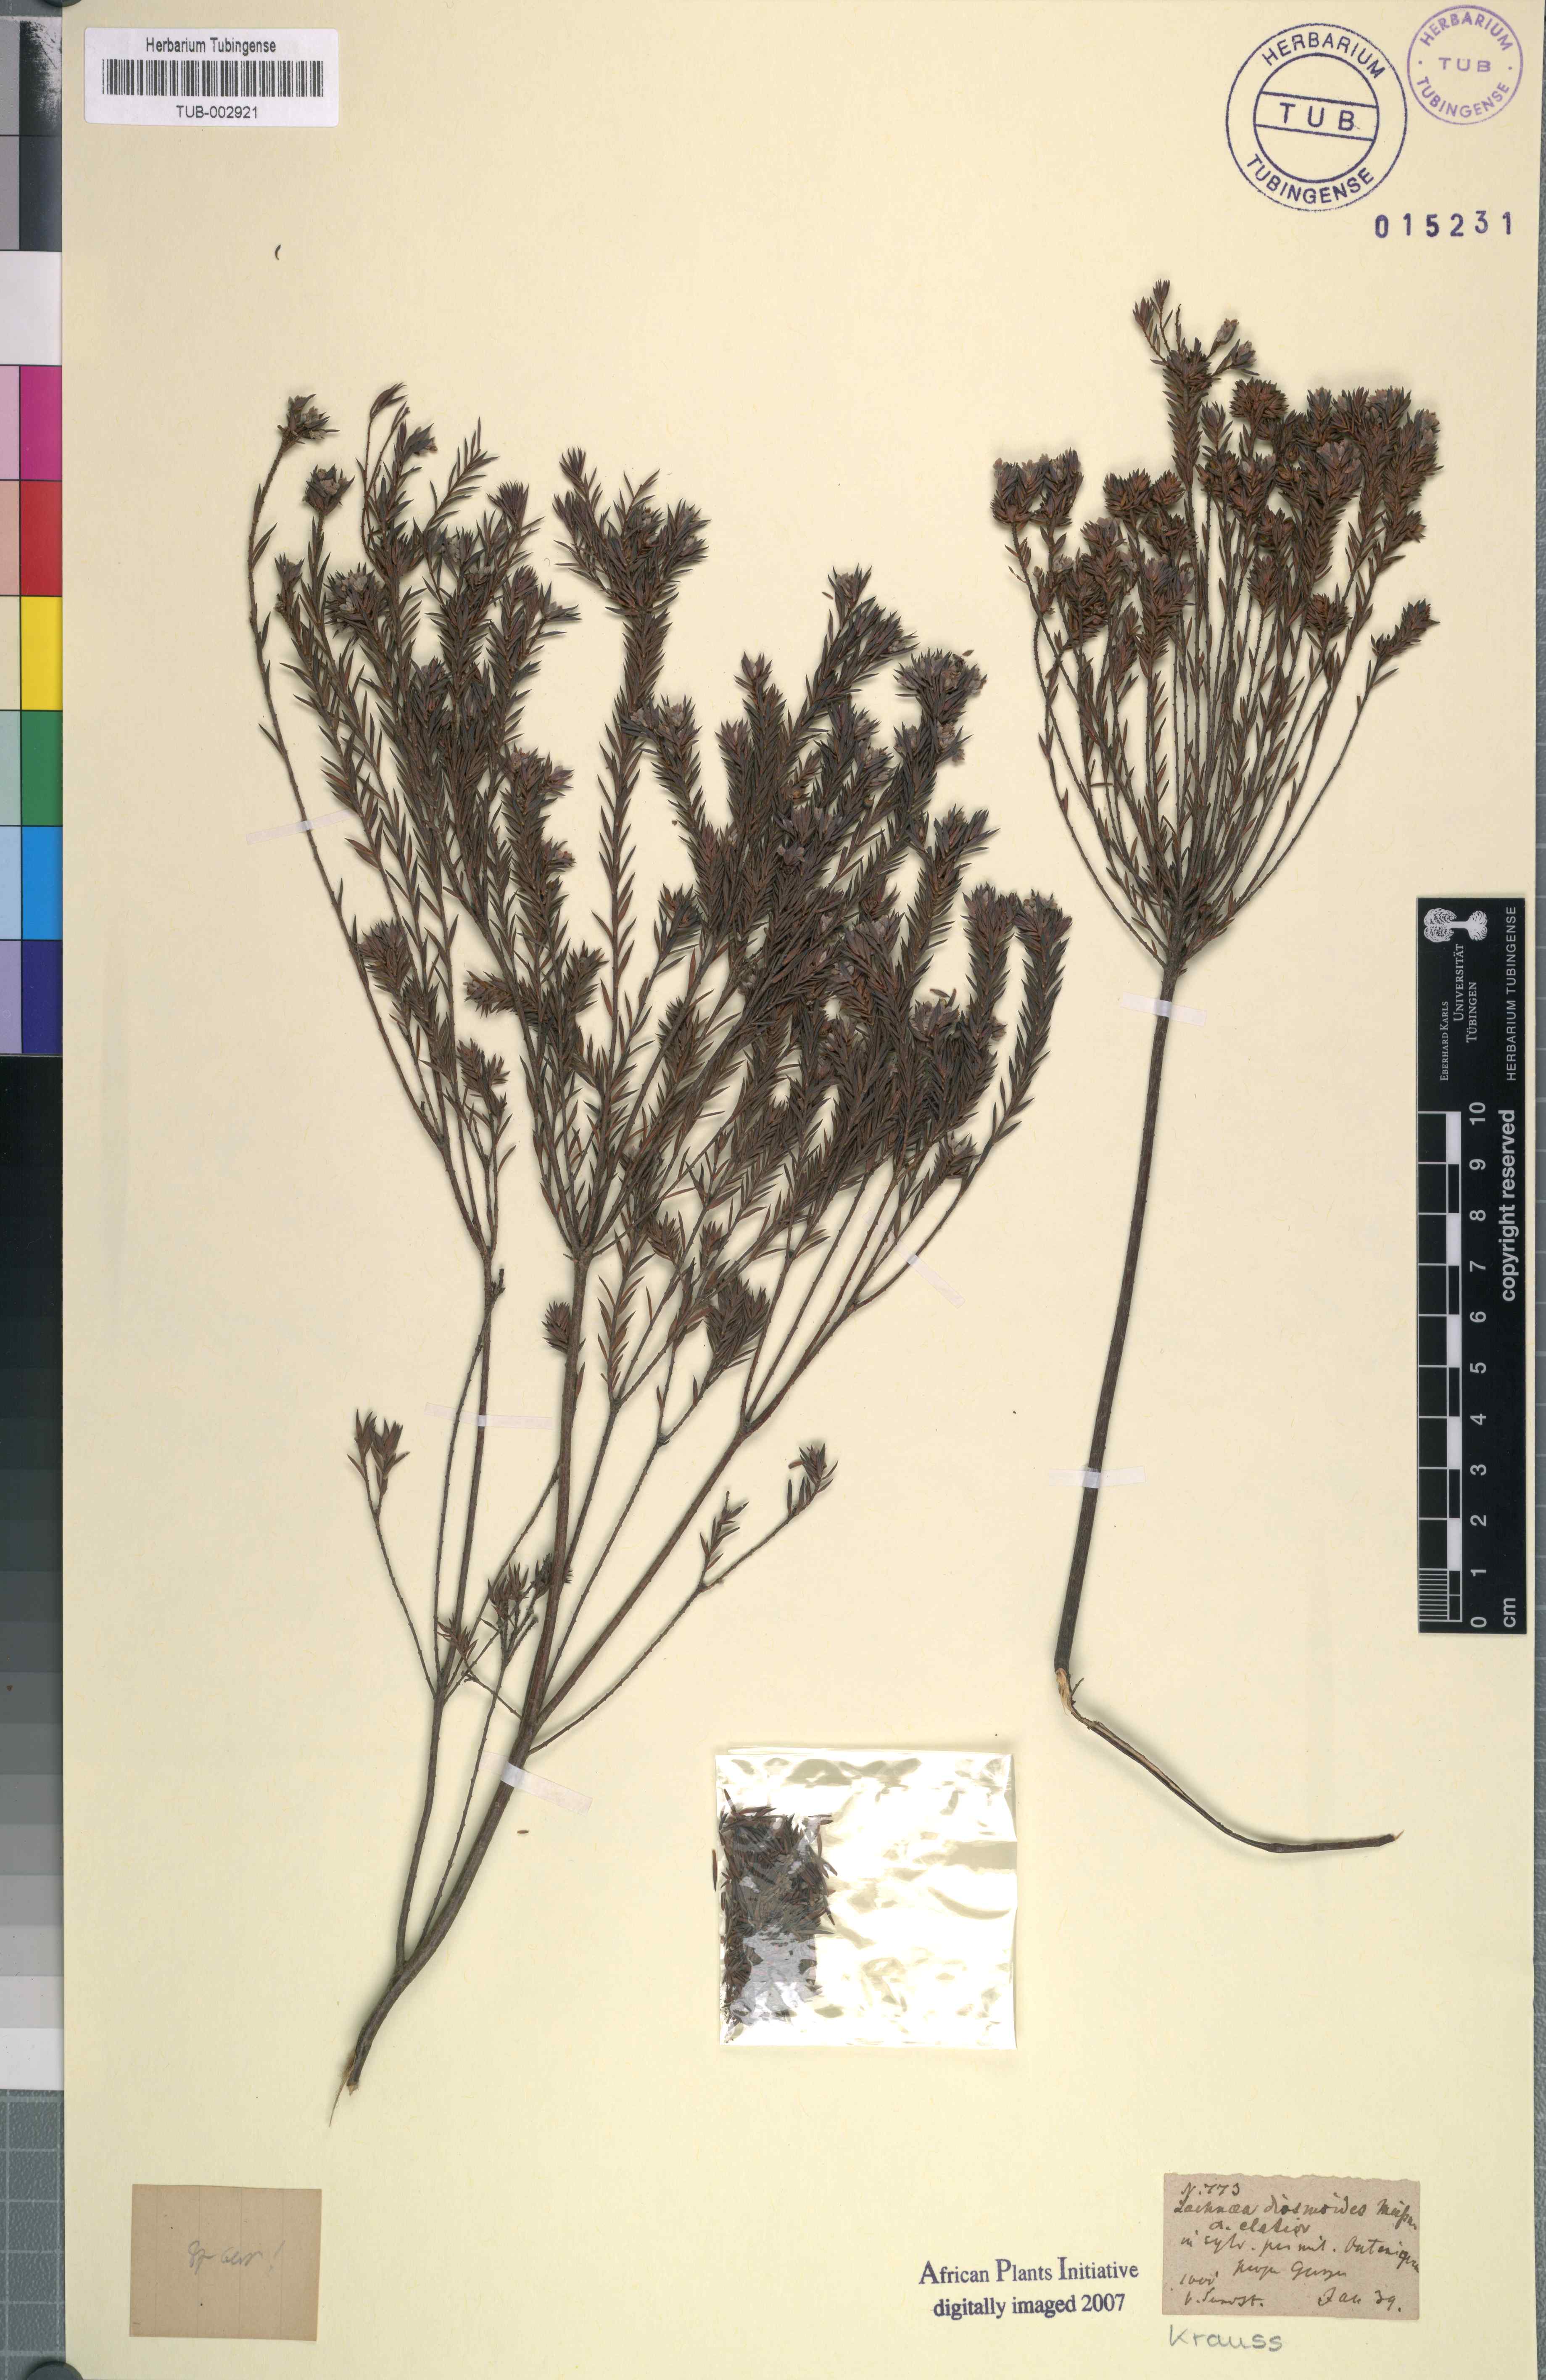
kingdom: Plantae
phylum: Tracheophyta
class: Magnoliopsida
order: Malvales
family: Thymelaeaceae
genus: Lachnaea
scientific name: Lachnaea diosmoides
